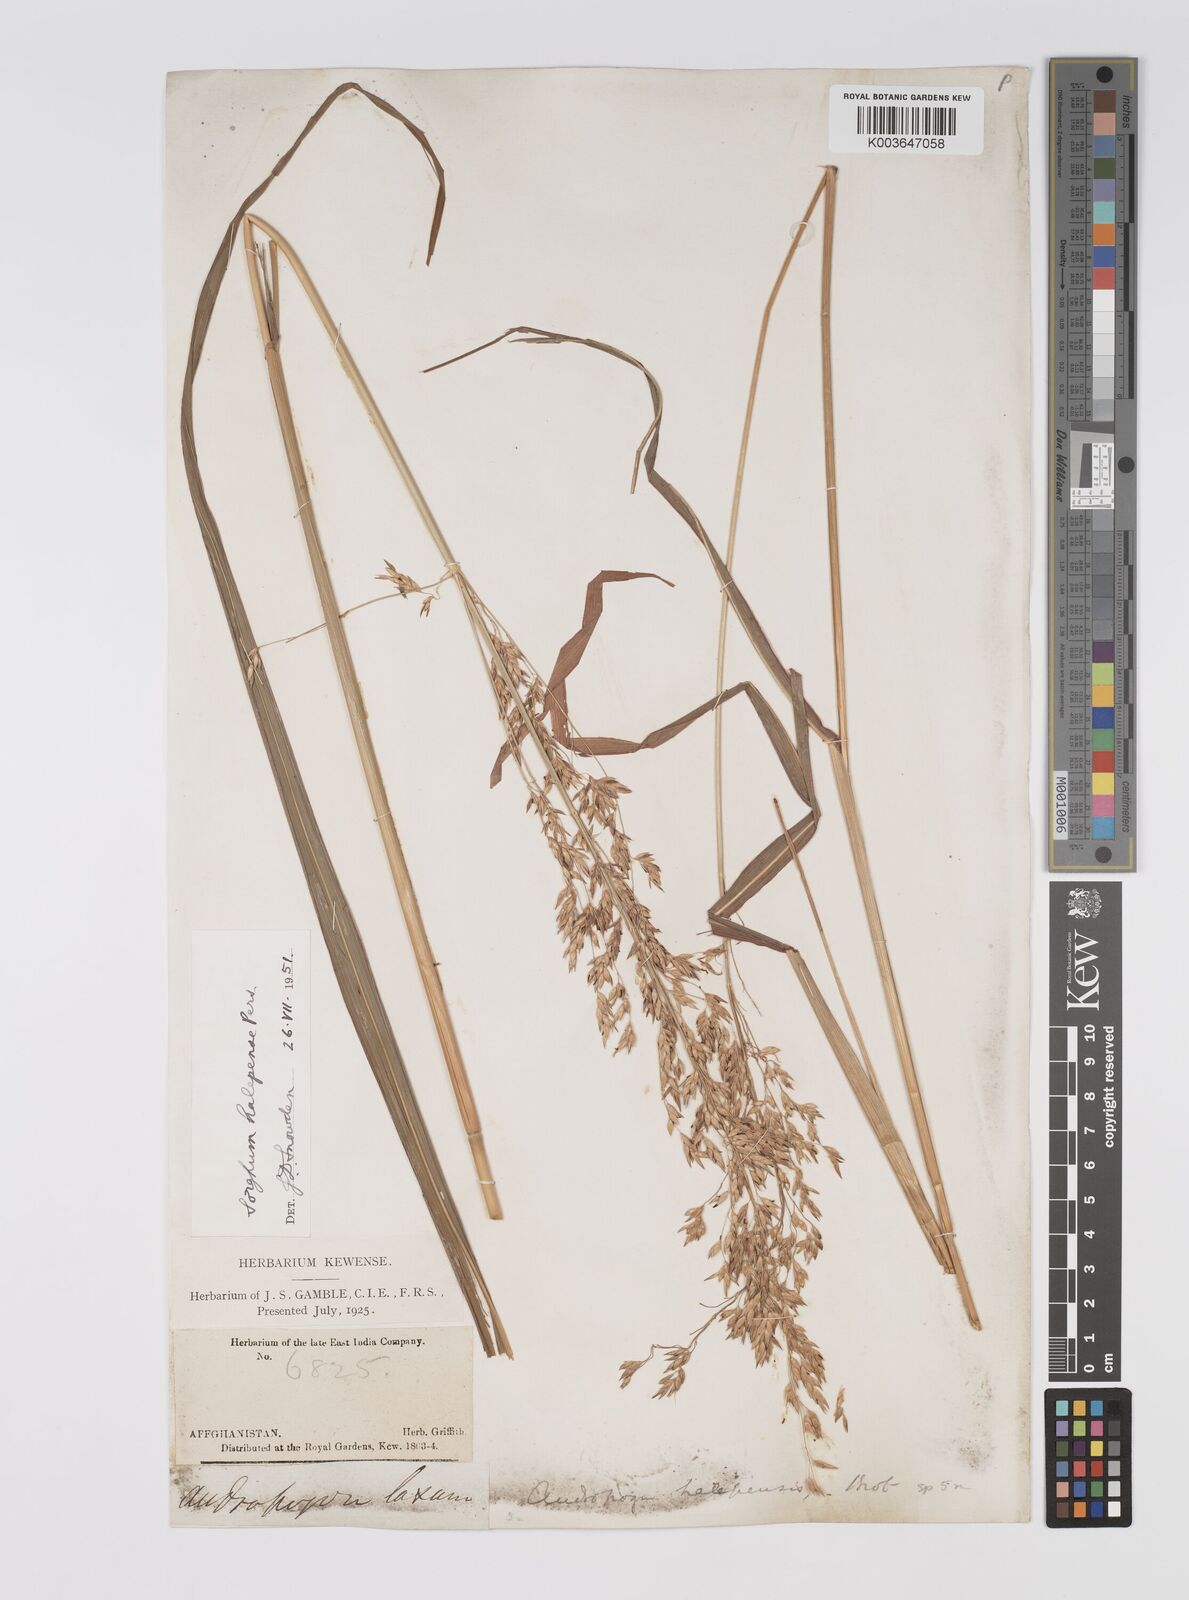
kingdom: Plantae
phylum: Tracheophyta
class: Liliopsida
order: Poales
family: Poaceae
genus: Sorghum
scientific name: Sorghum halepense
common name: Johnson-grass
